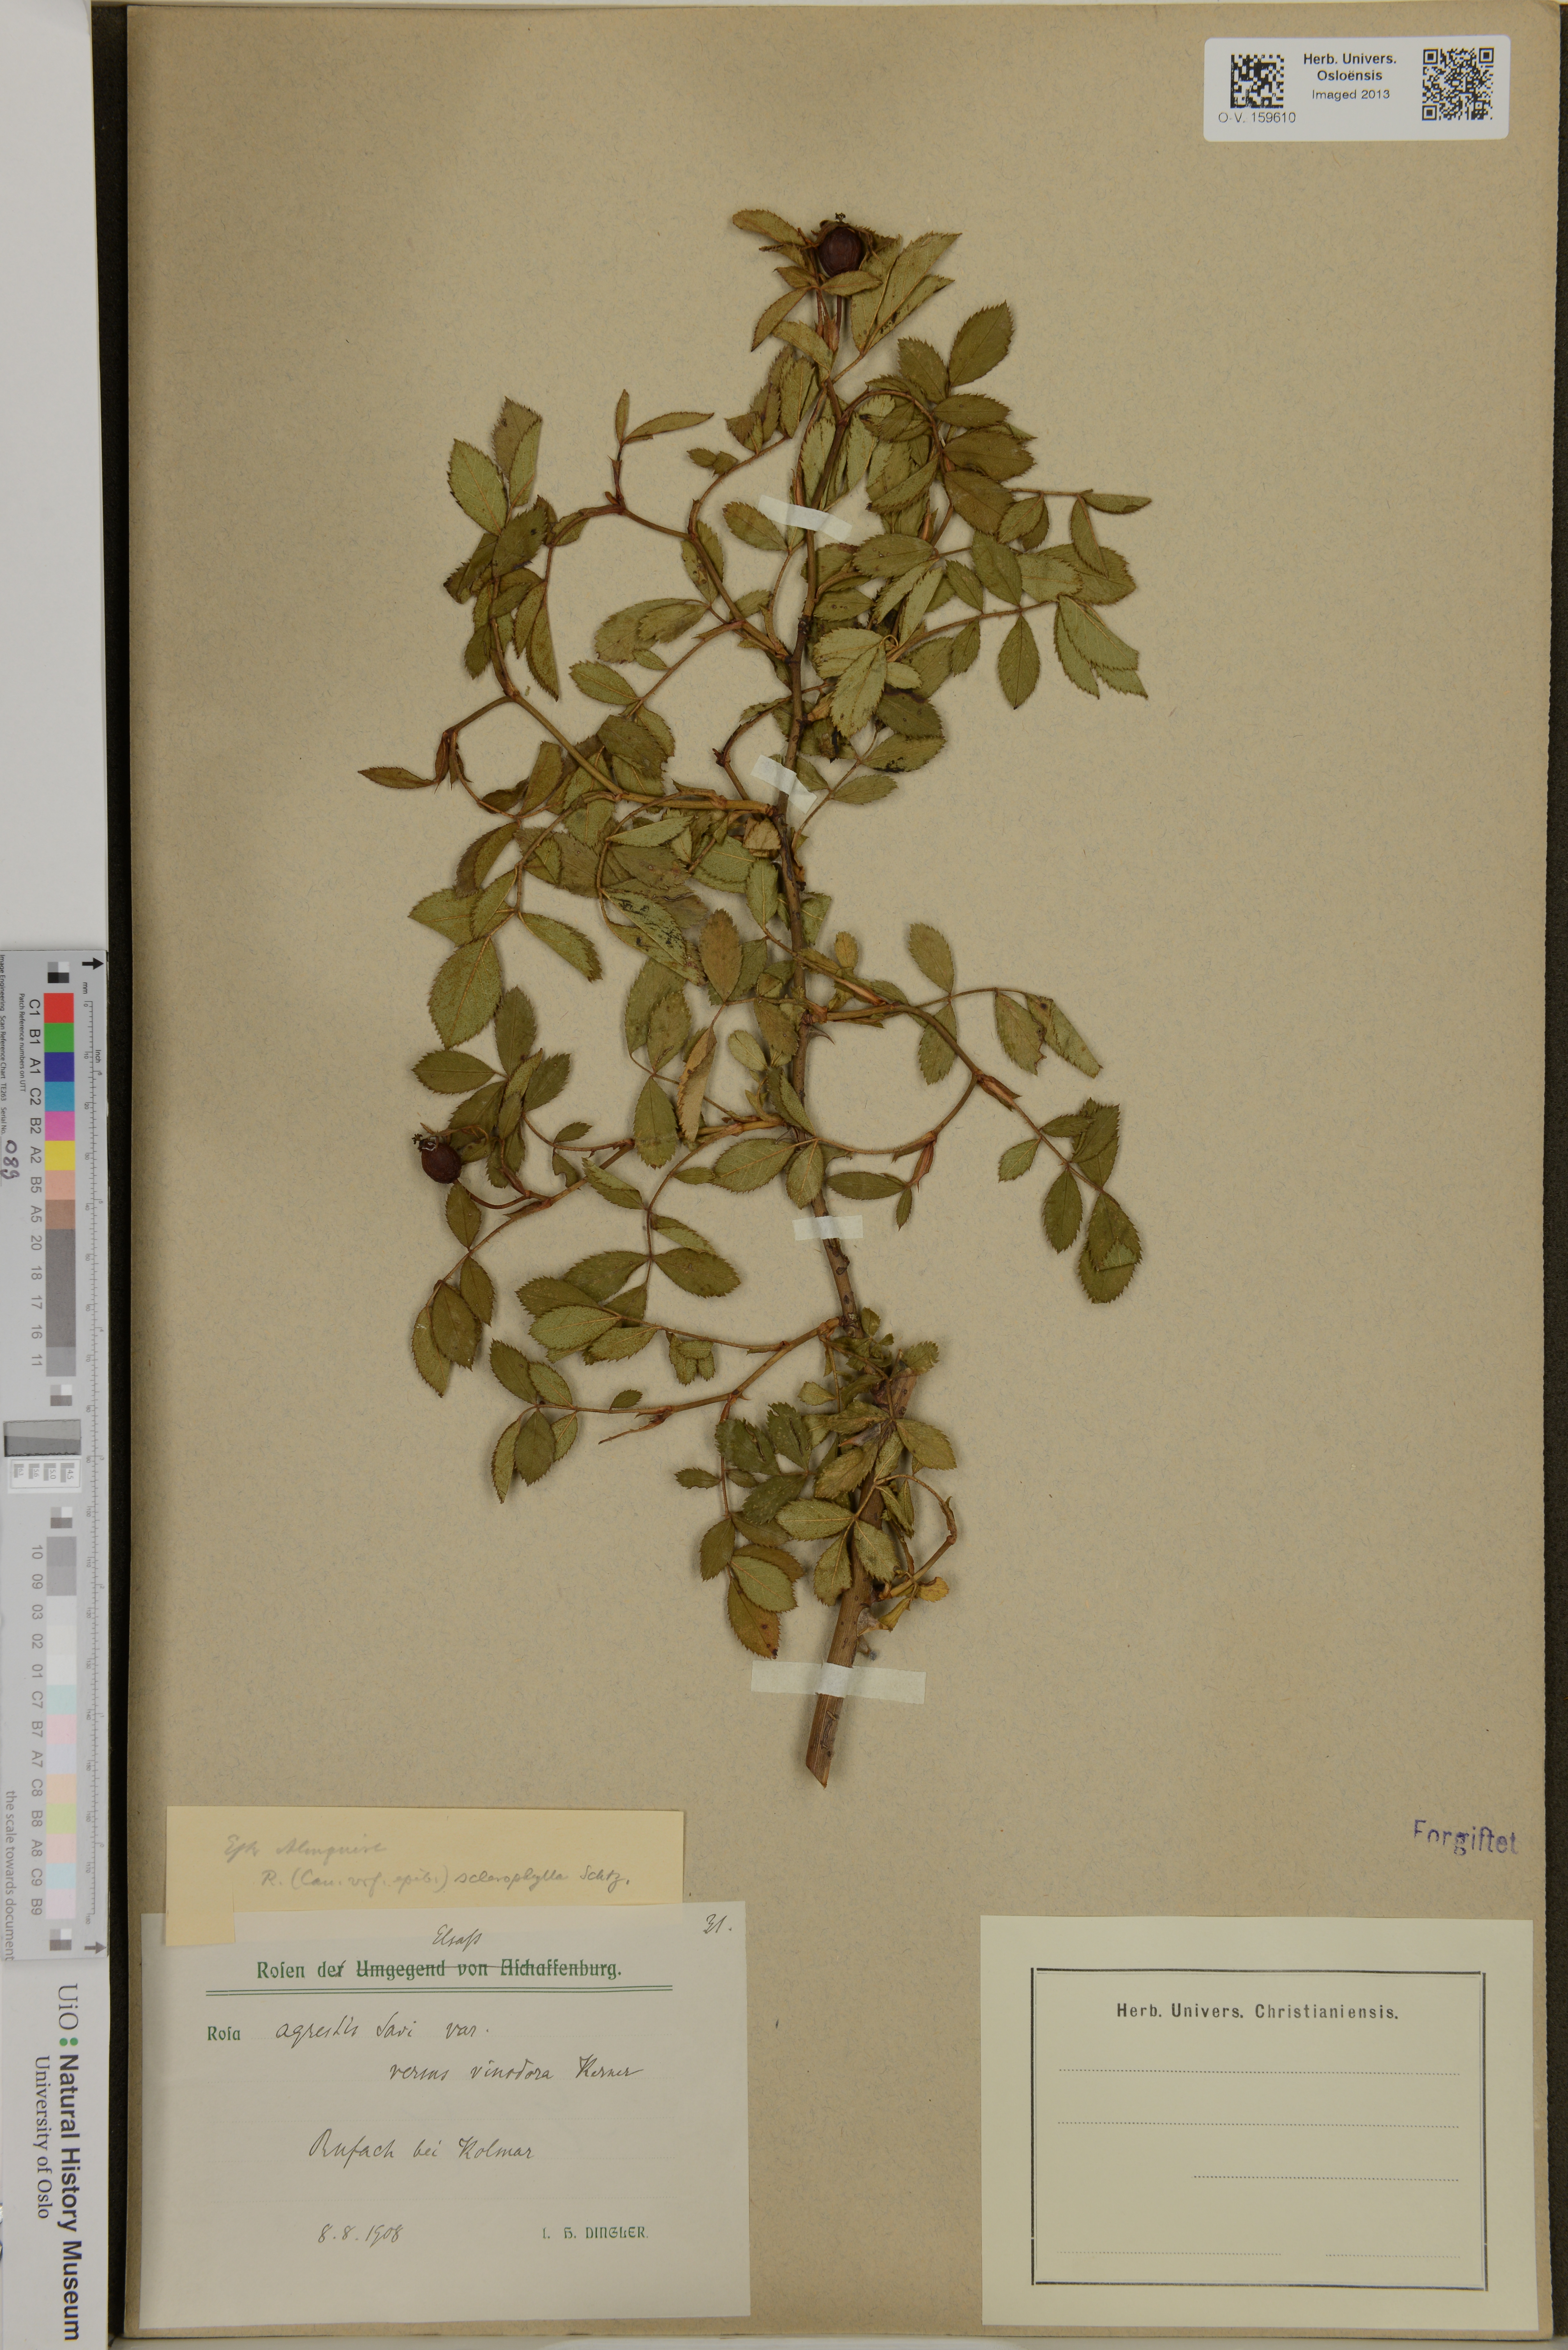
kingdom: Plantae
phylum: Tracheophyta
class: Magnoliopsida
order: Rosales
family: Rosaceae
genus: Rosa
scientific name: Rosa agrestis
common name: Fieldbriar
